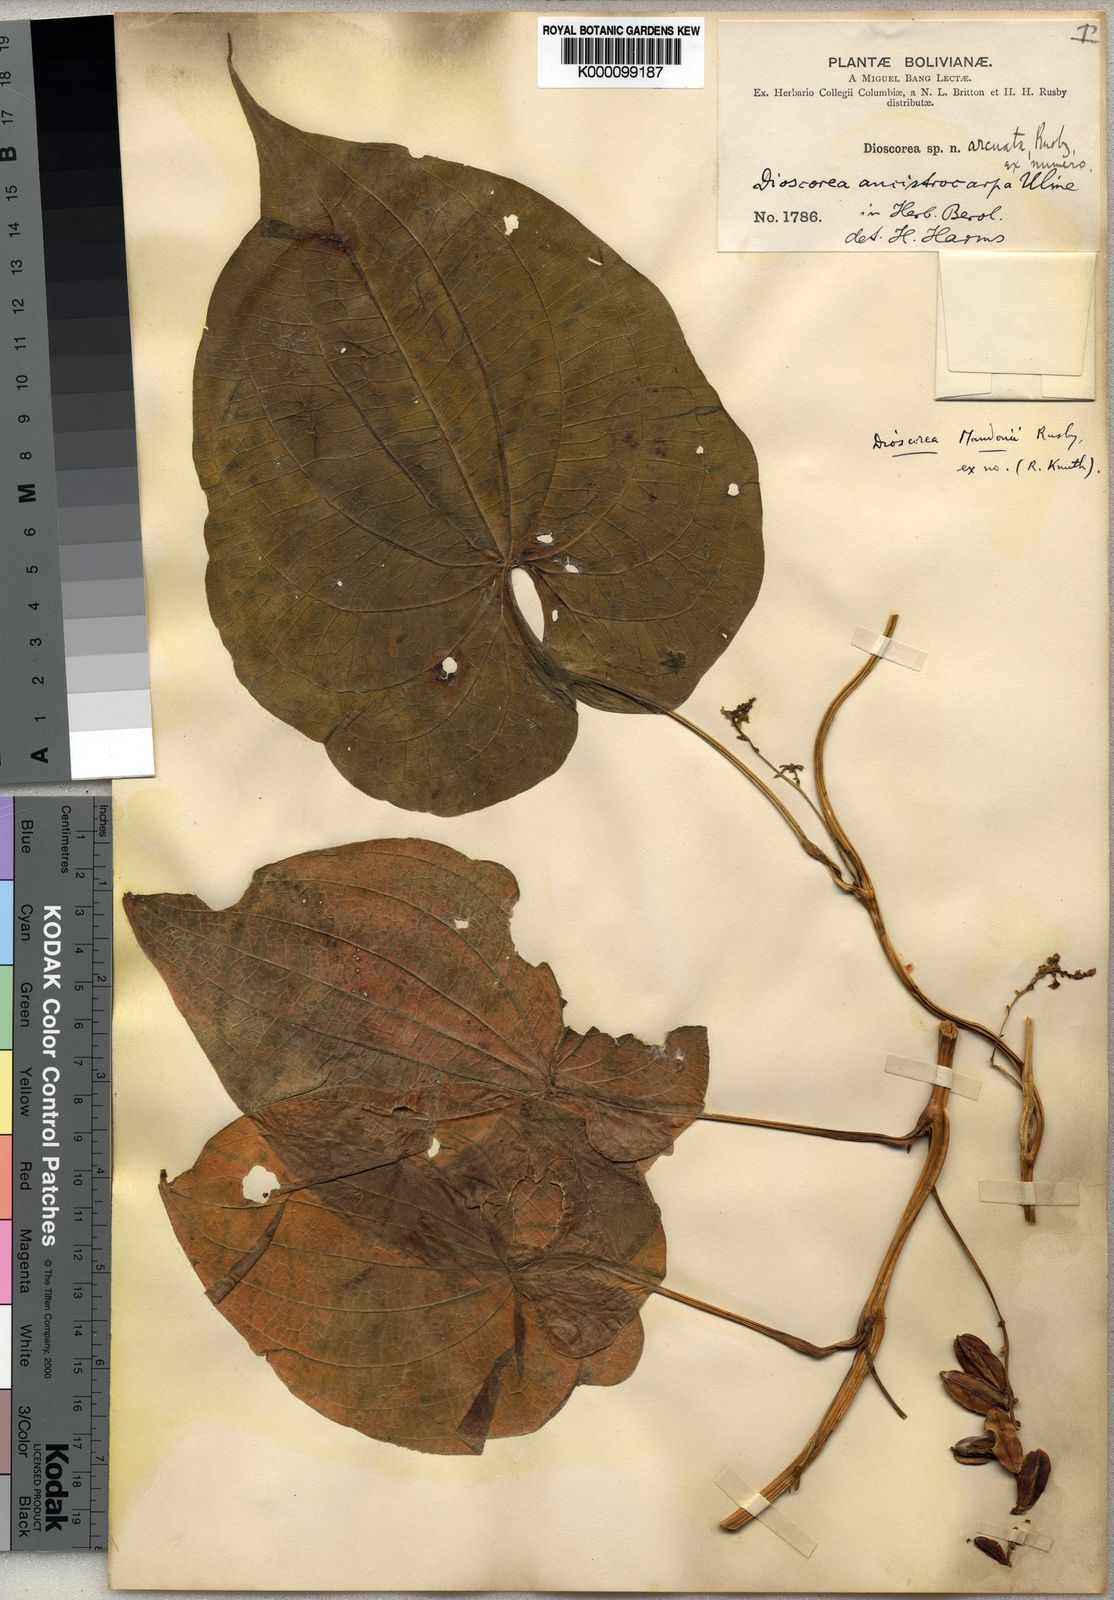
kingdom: Plantae
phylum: Tracheophyta
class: Liliopsida
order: Dioscoreales
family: Dioscoreaceae
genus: Dioscorea
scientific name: Dioscorea piperifolia
